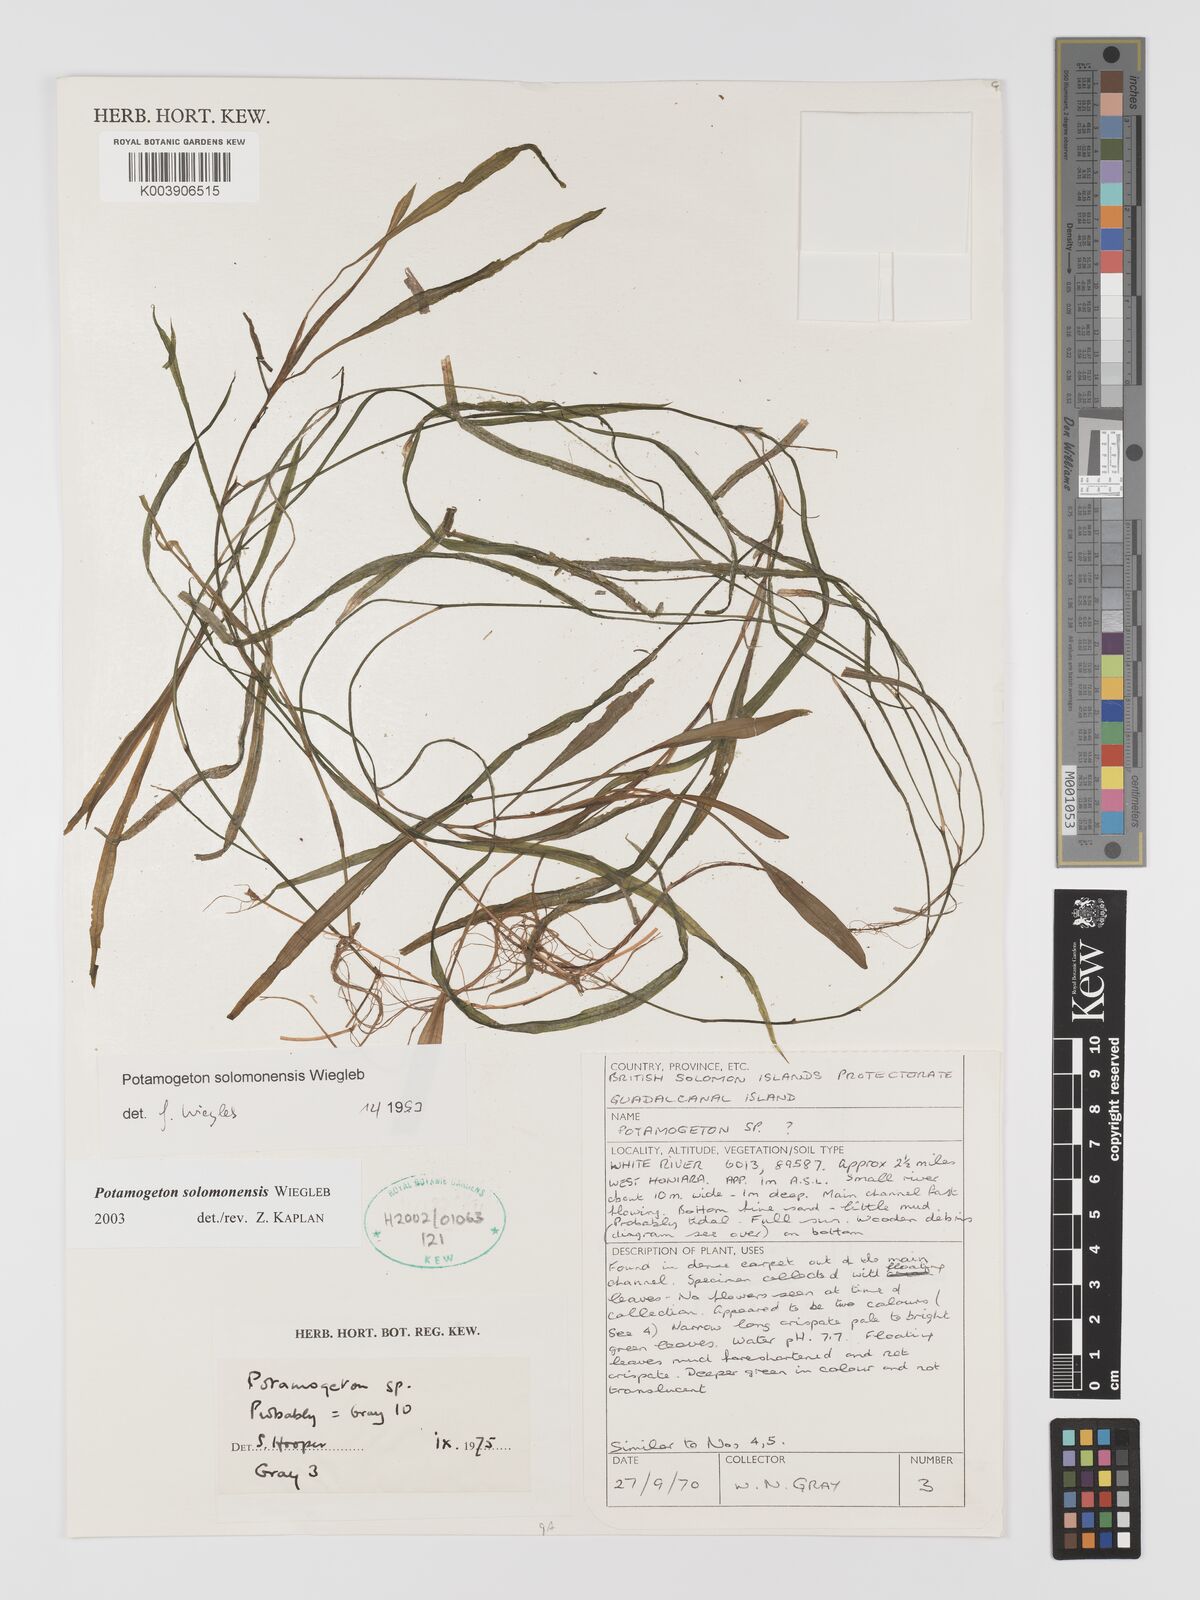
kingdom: Plantae
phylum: Tracheophyta
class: Liliopsida
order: Alismatales
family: Potamogetonaceae
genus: Potamogeton
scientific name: Potamogeton solomonensis
